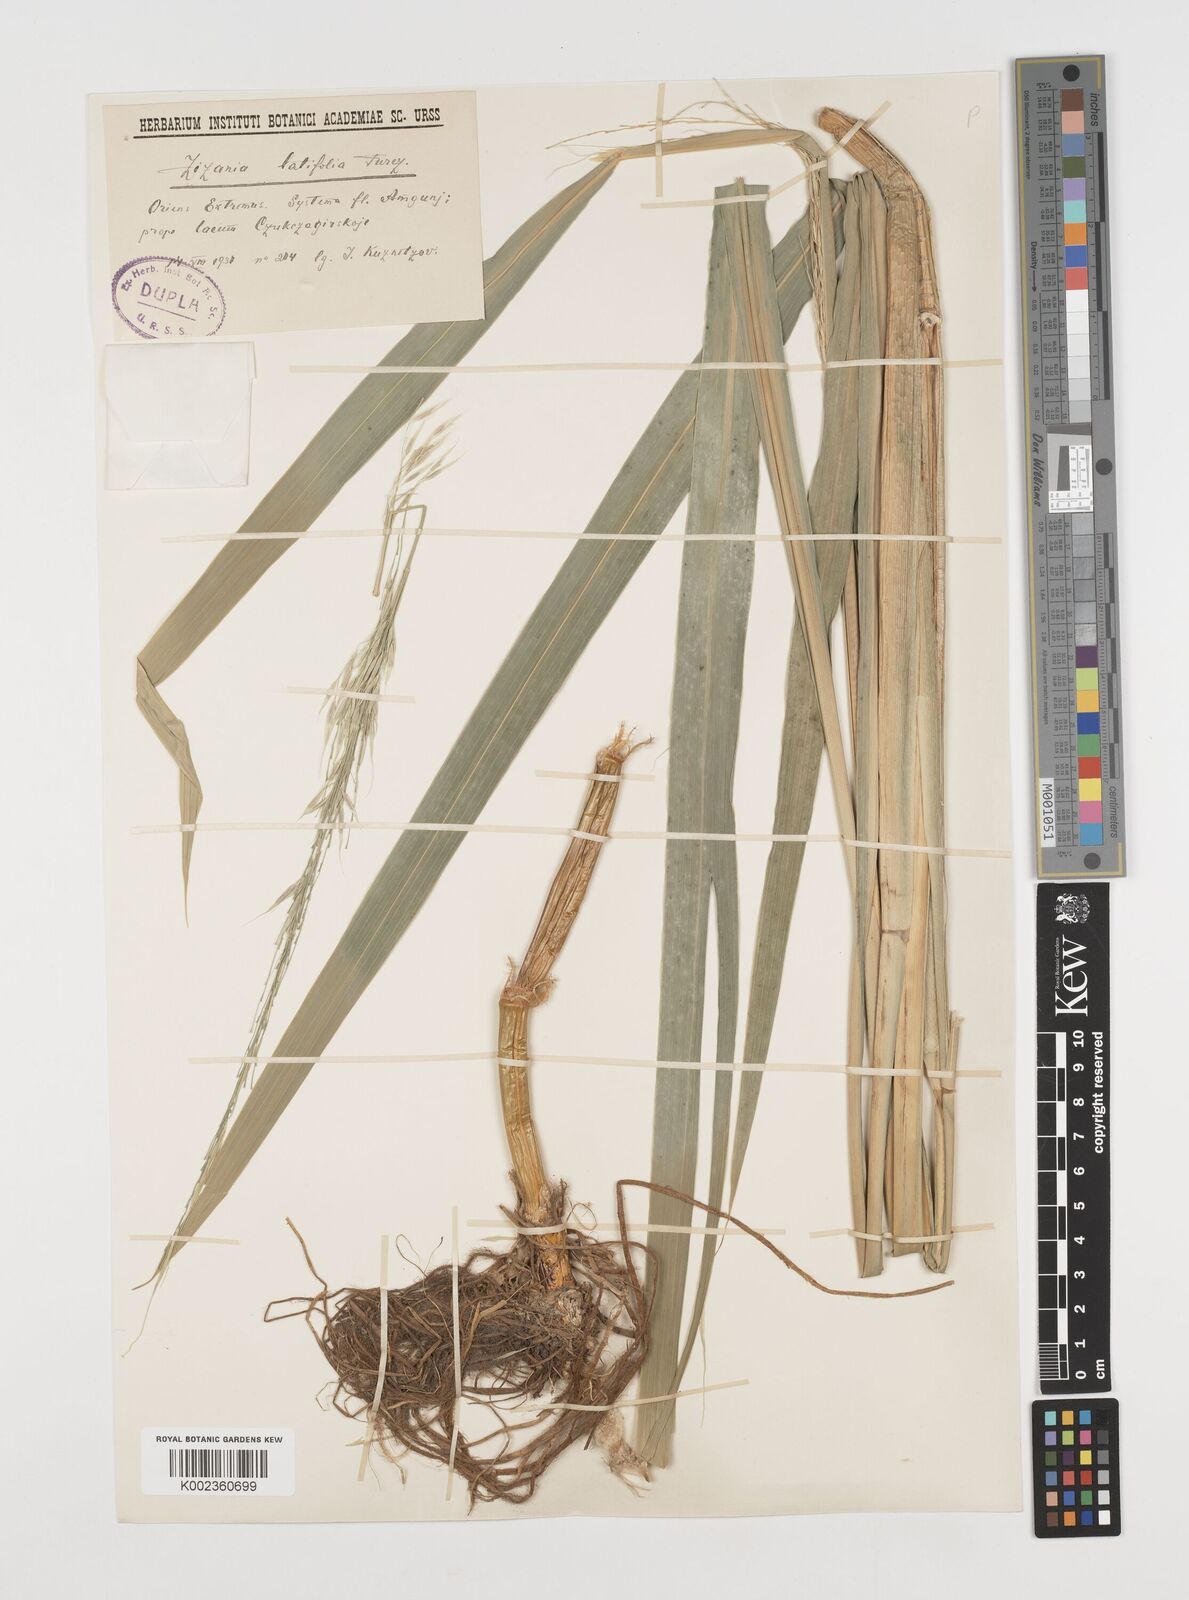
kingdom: Plantae
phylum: Tracheophyta
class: Liliopsida
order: Poales
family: Poaceae
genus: Zizania
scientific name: Zizania latifolia
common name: Manchurian wildrice
